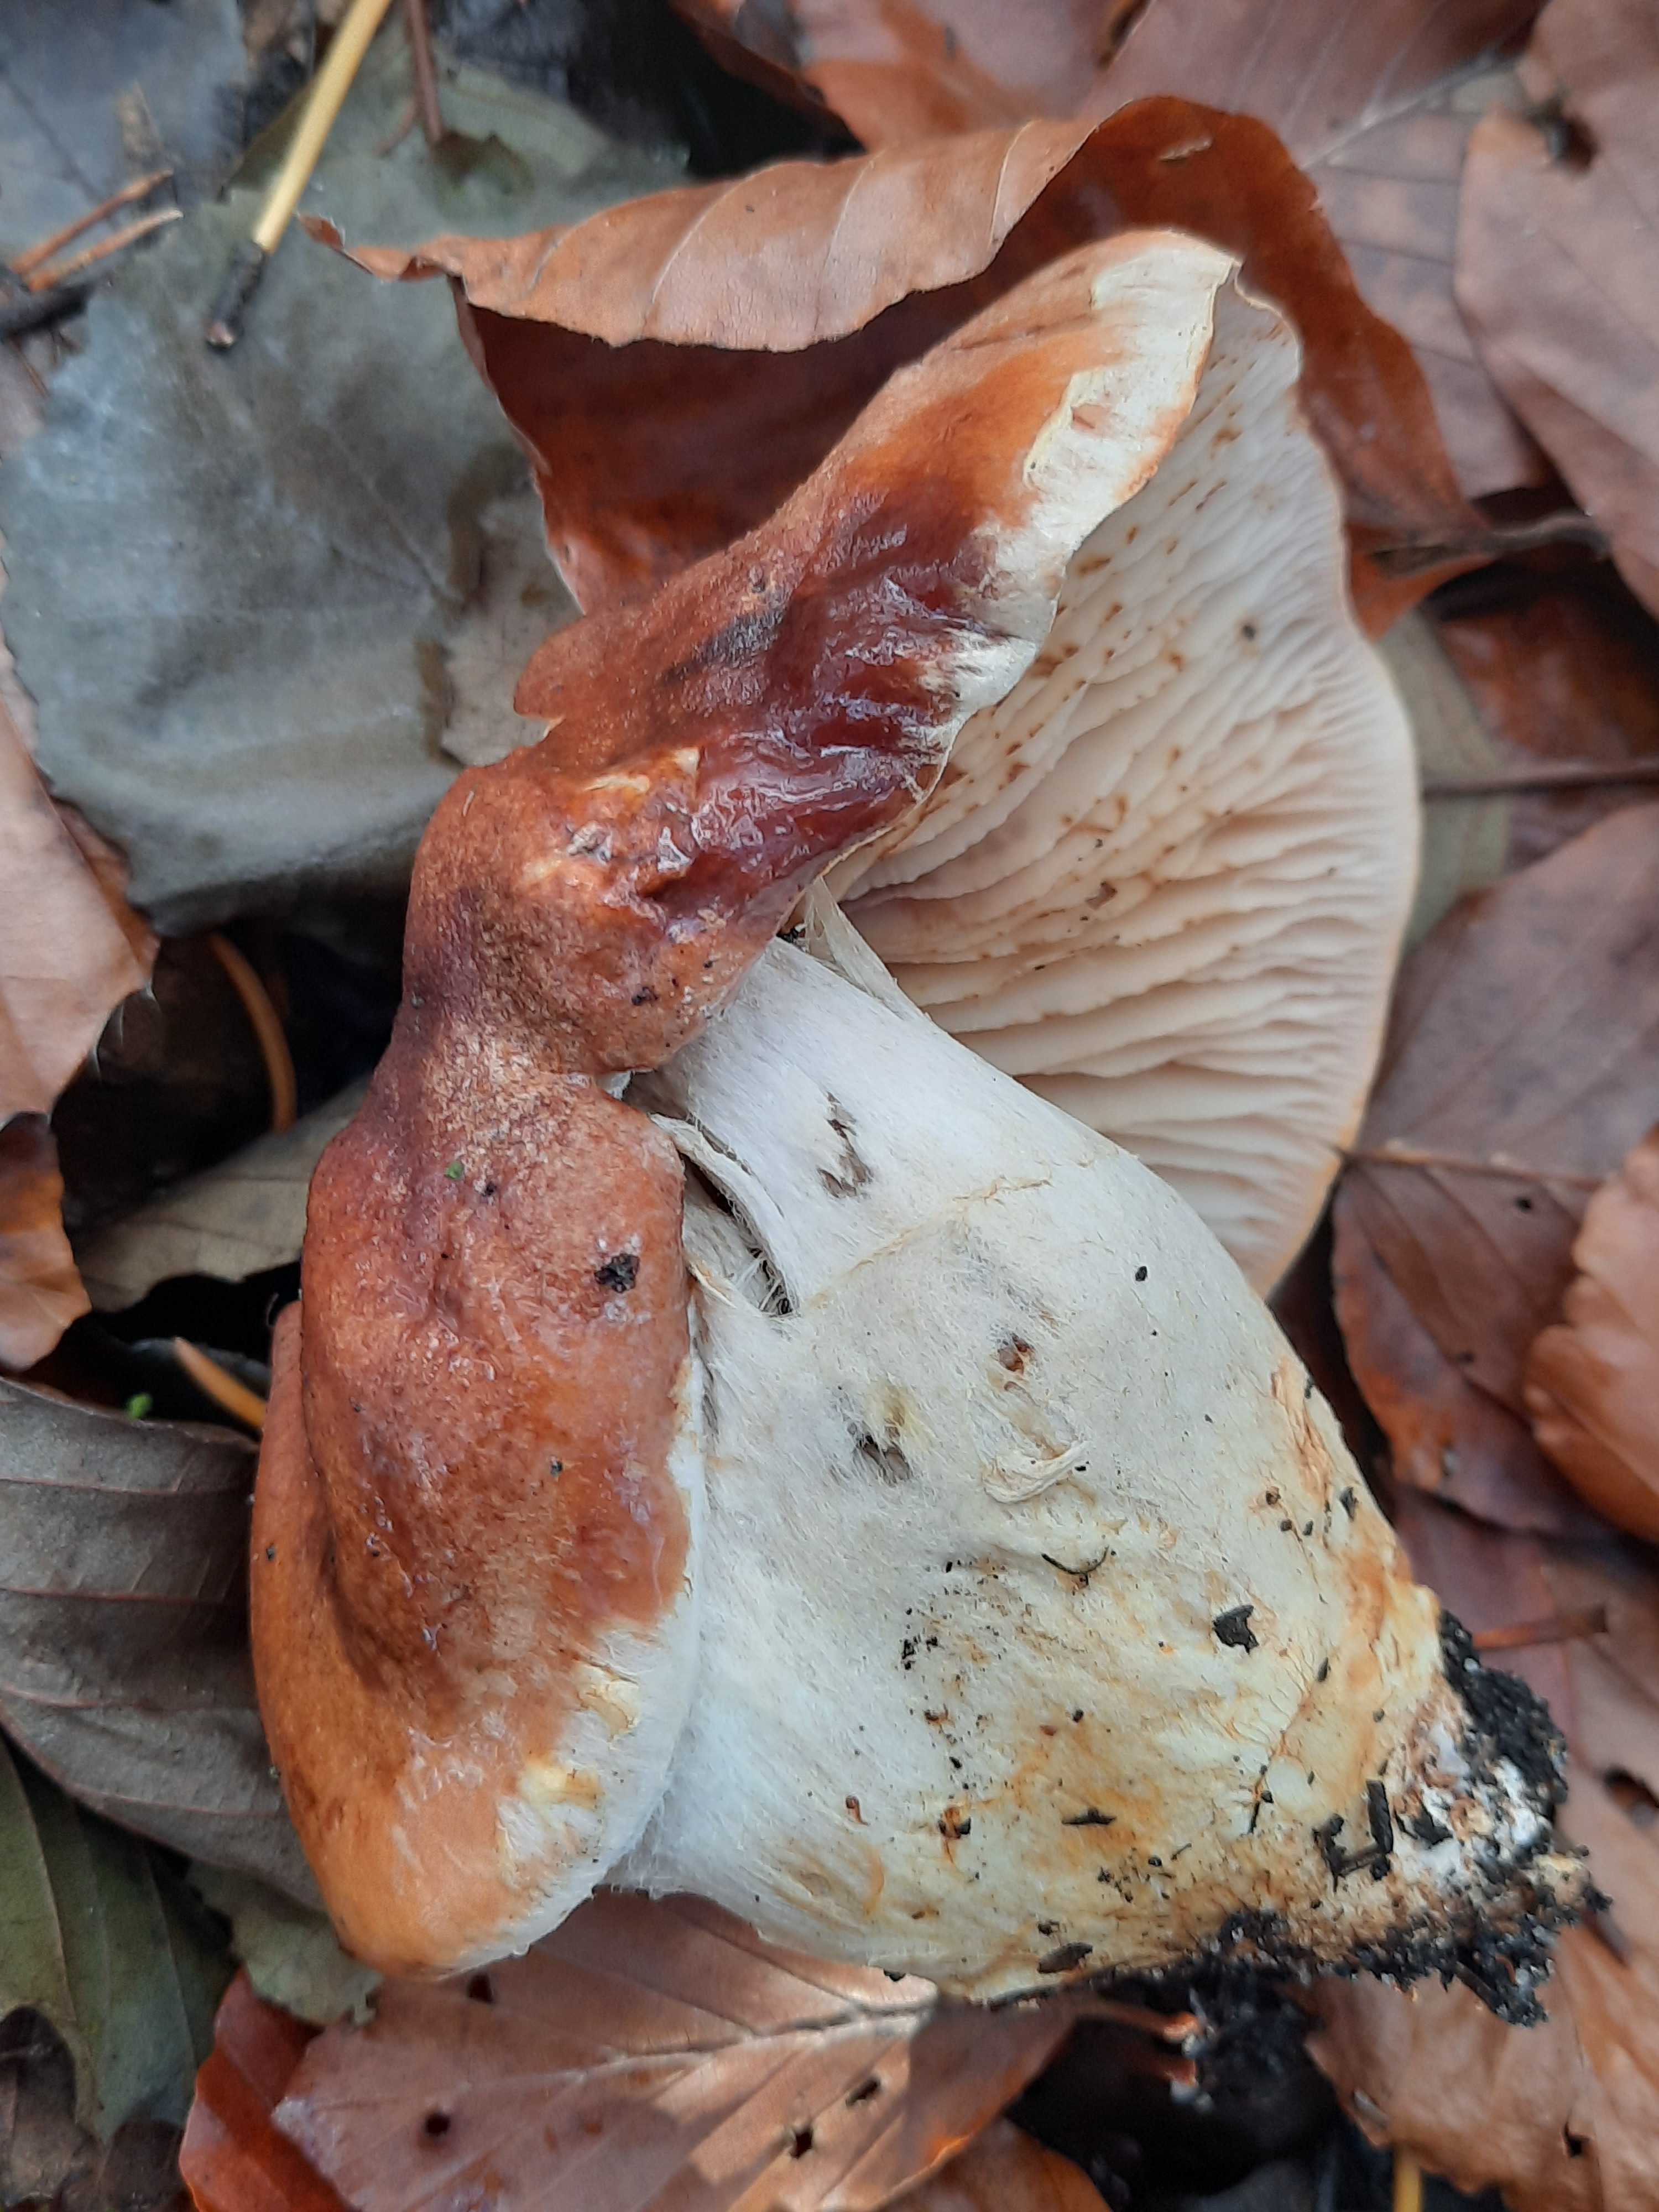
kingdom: Fungi
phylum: Basidiomycota
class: Agaricomycetes
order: Agaricales
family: Cortinariaceae
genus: Phlegmacium
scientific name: Phlegmacium vulpinum
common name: ringbæltet slørhat
